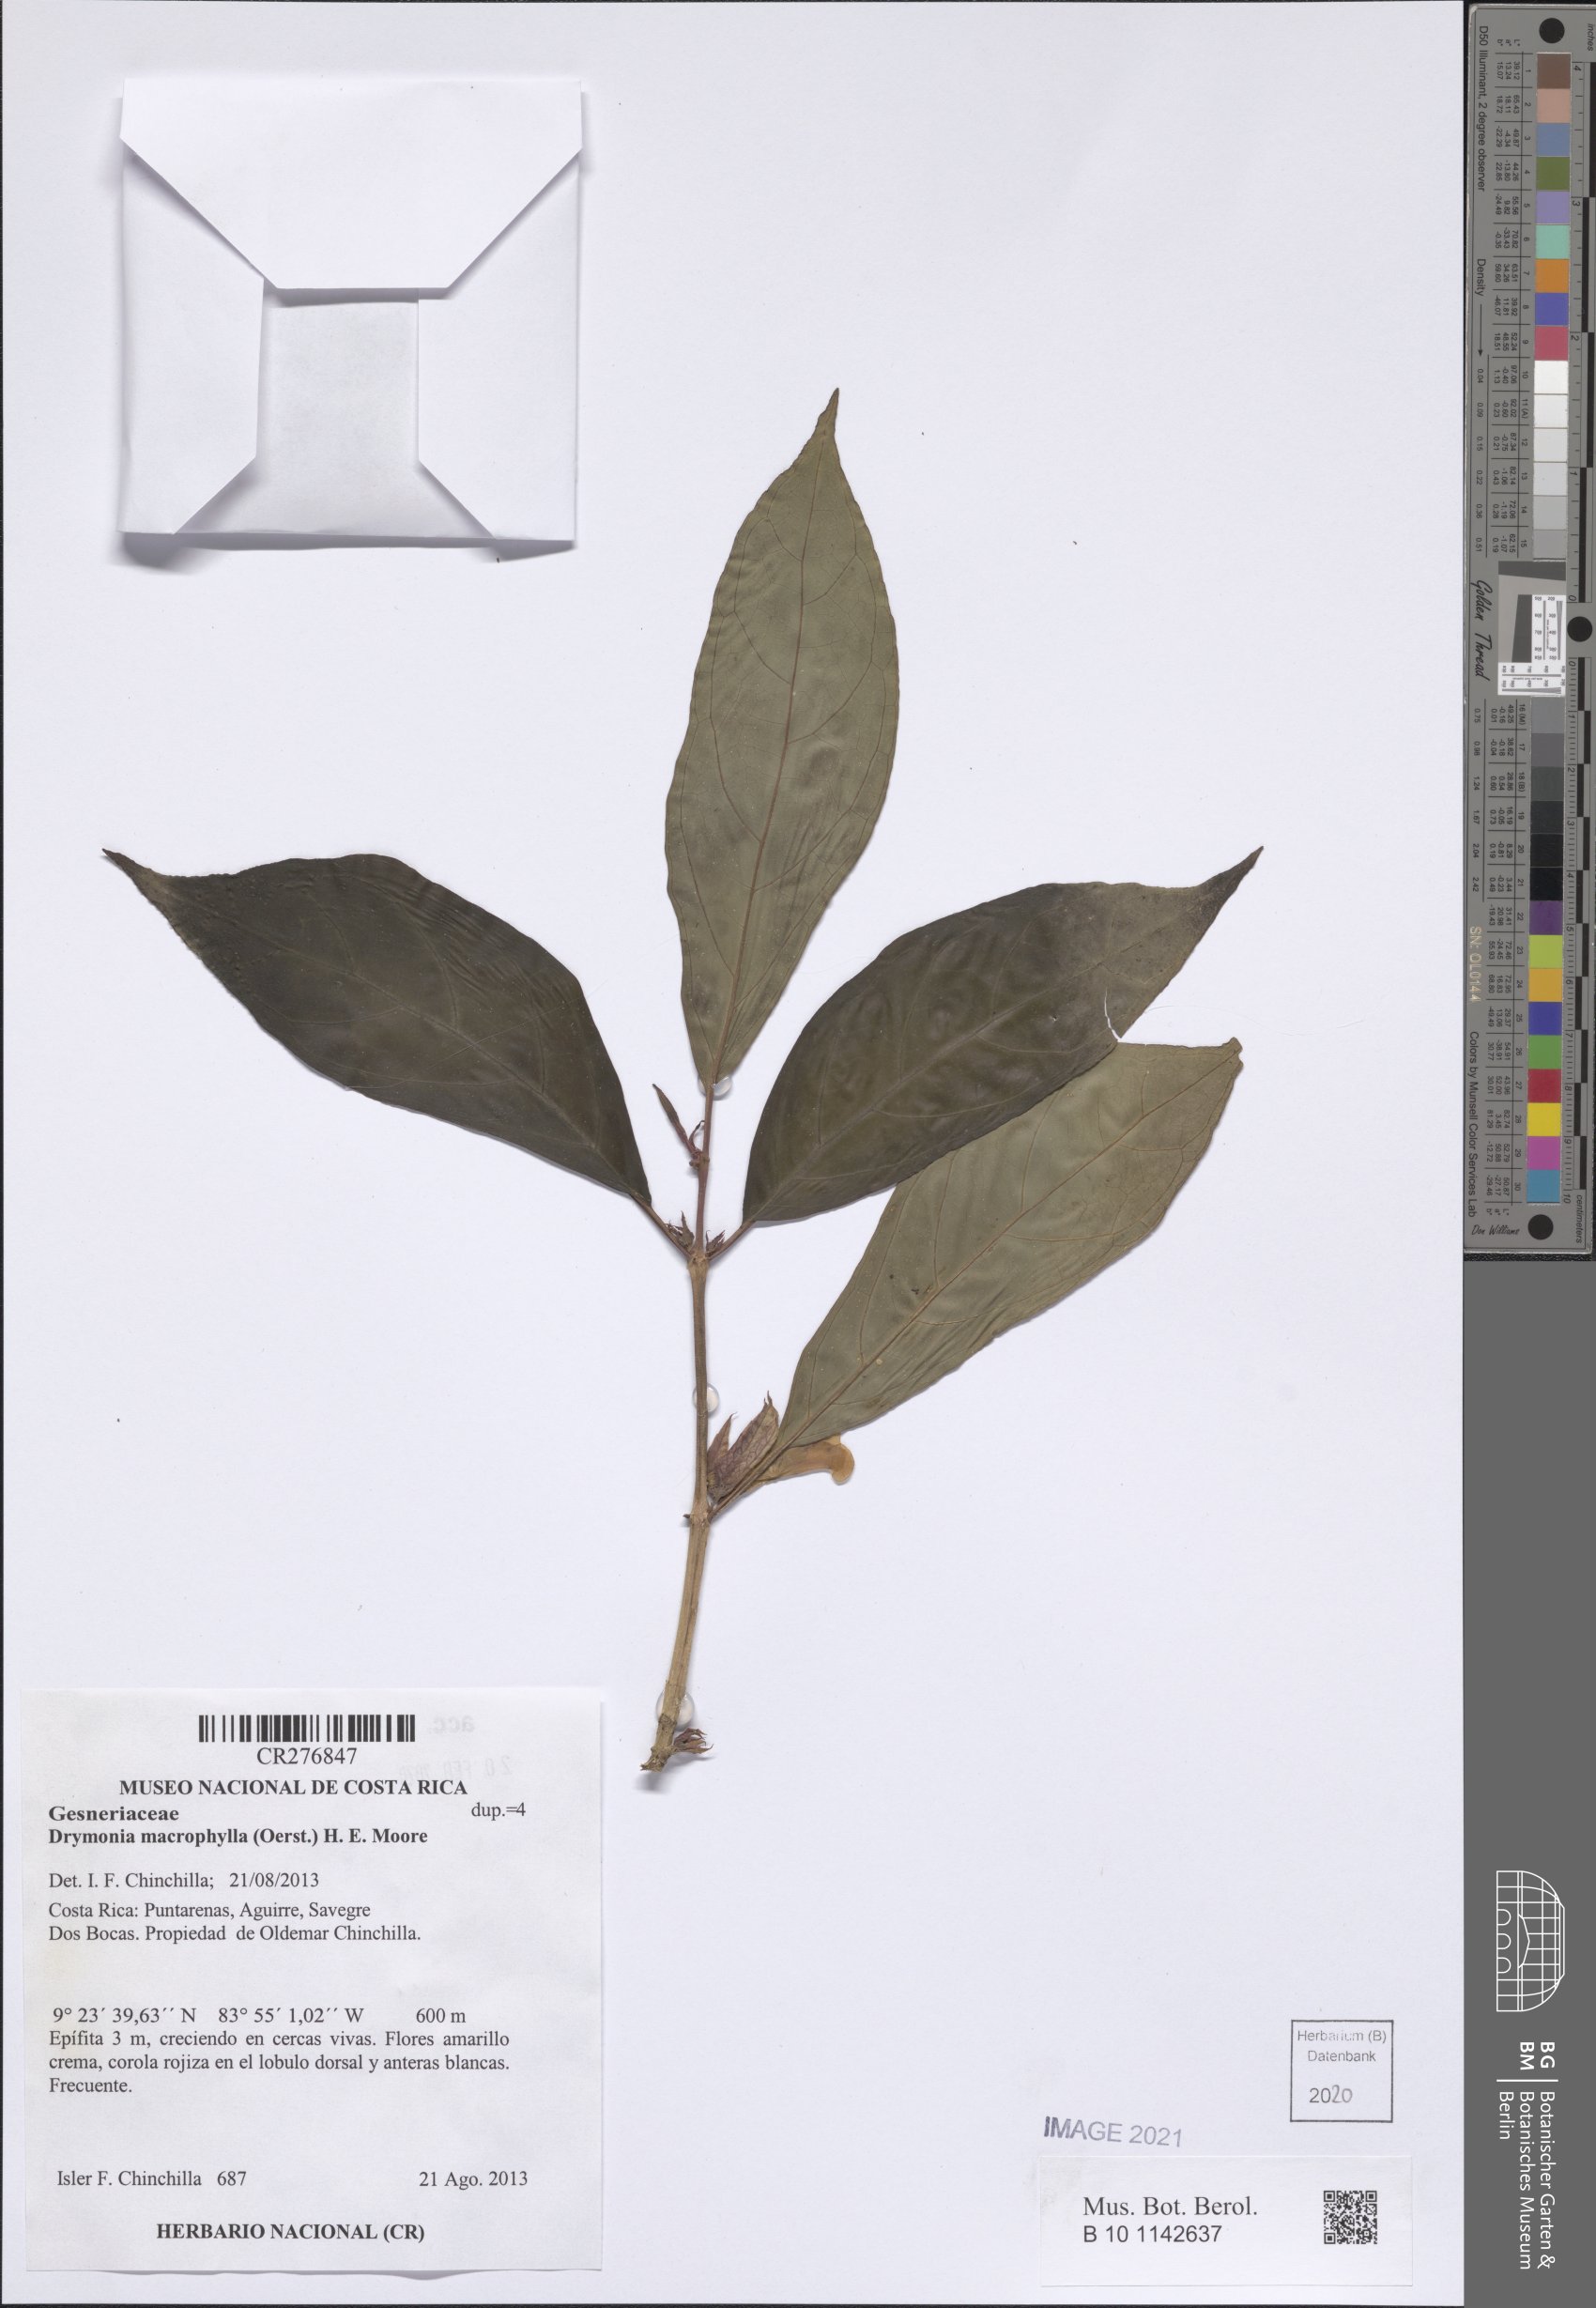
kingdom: Plantae
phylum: Tracheophyta
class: Magnoliopsida
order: Lamiales
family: Gesneriaceae
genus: Drymonia
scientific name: Drymonia macrophylla
